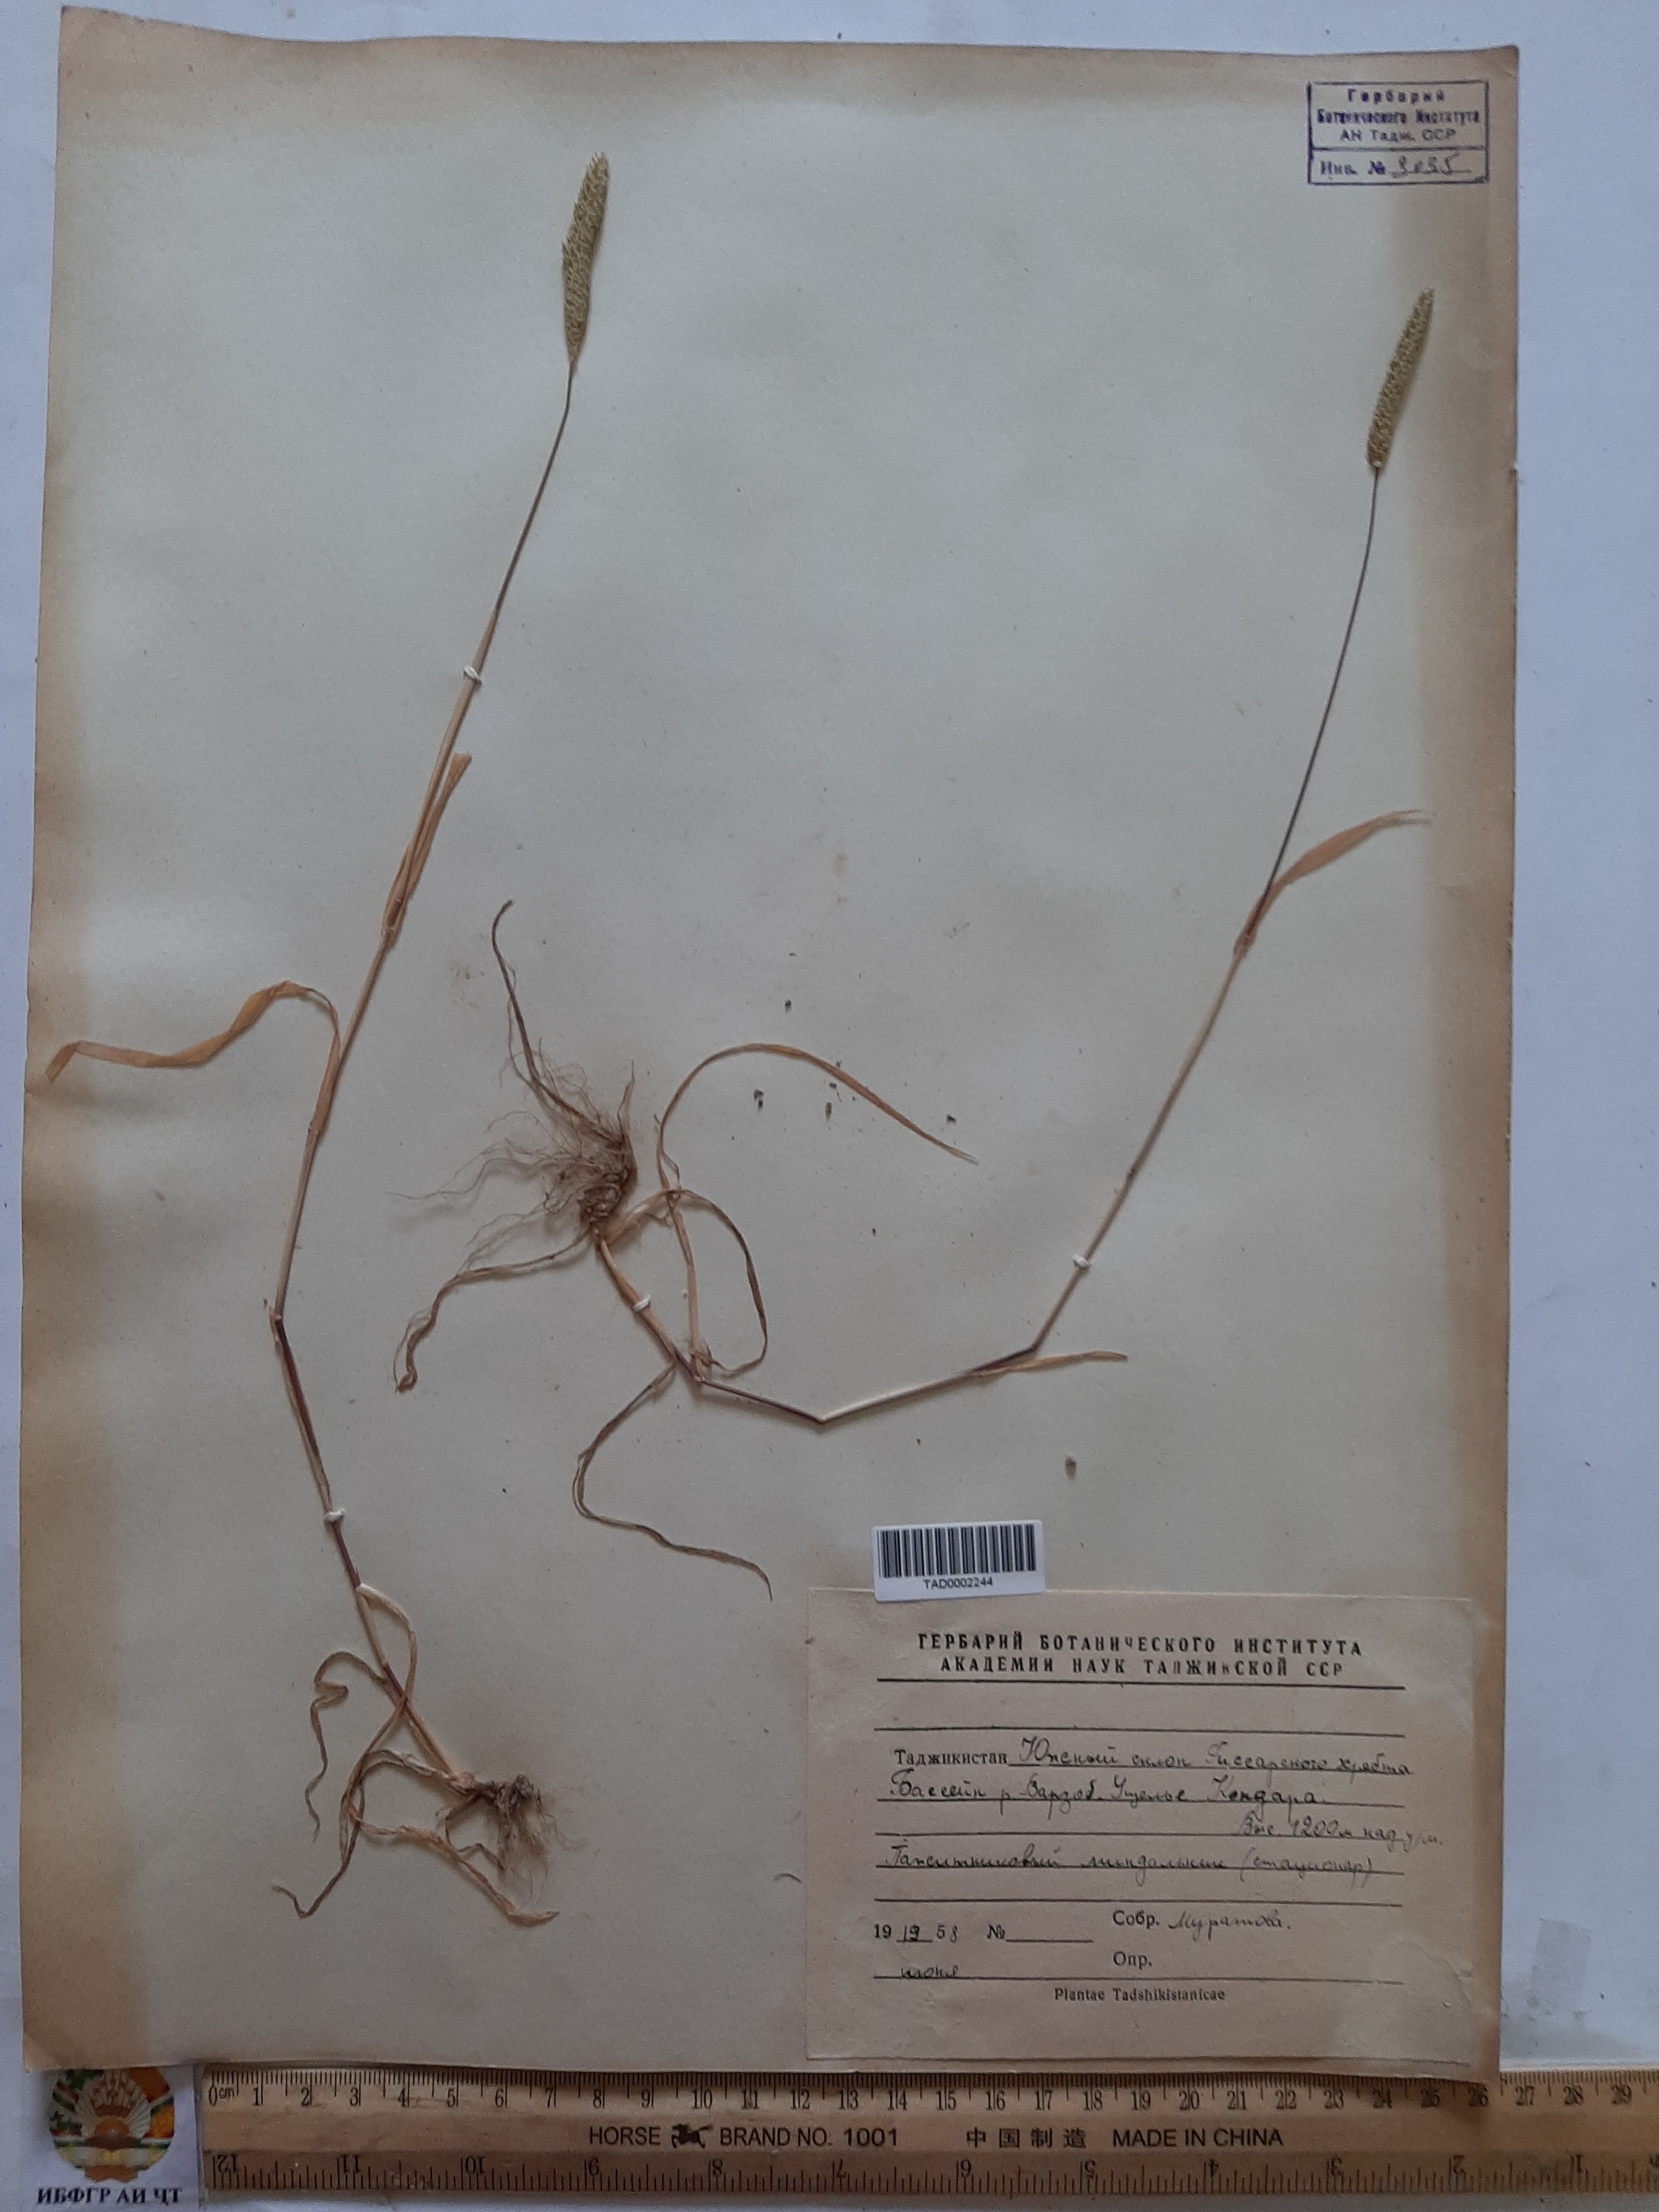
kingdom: Plantae
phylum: Tracheophyta
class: Liliopsida
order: Poales
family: Poaceae
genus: Phleum
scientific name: Phleum paniculatum
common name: British timothy
